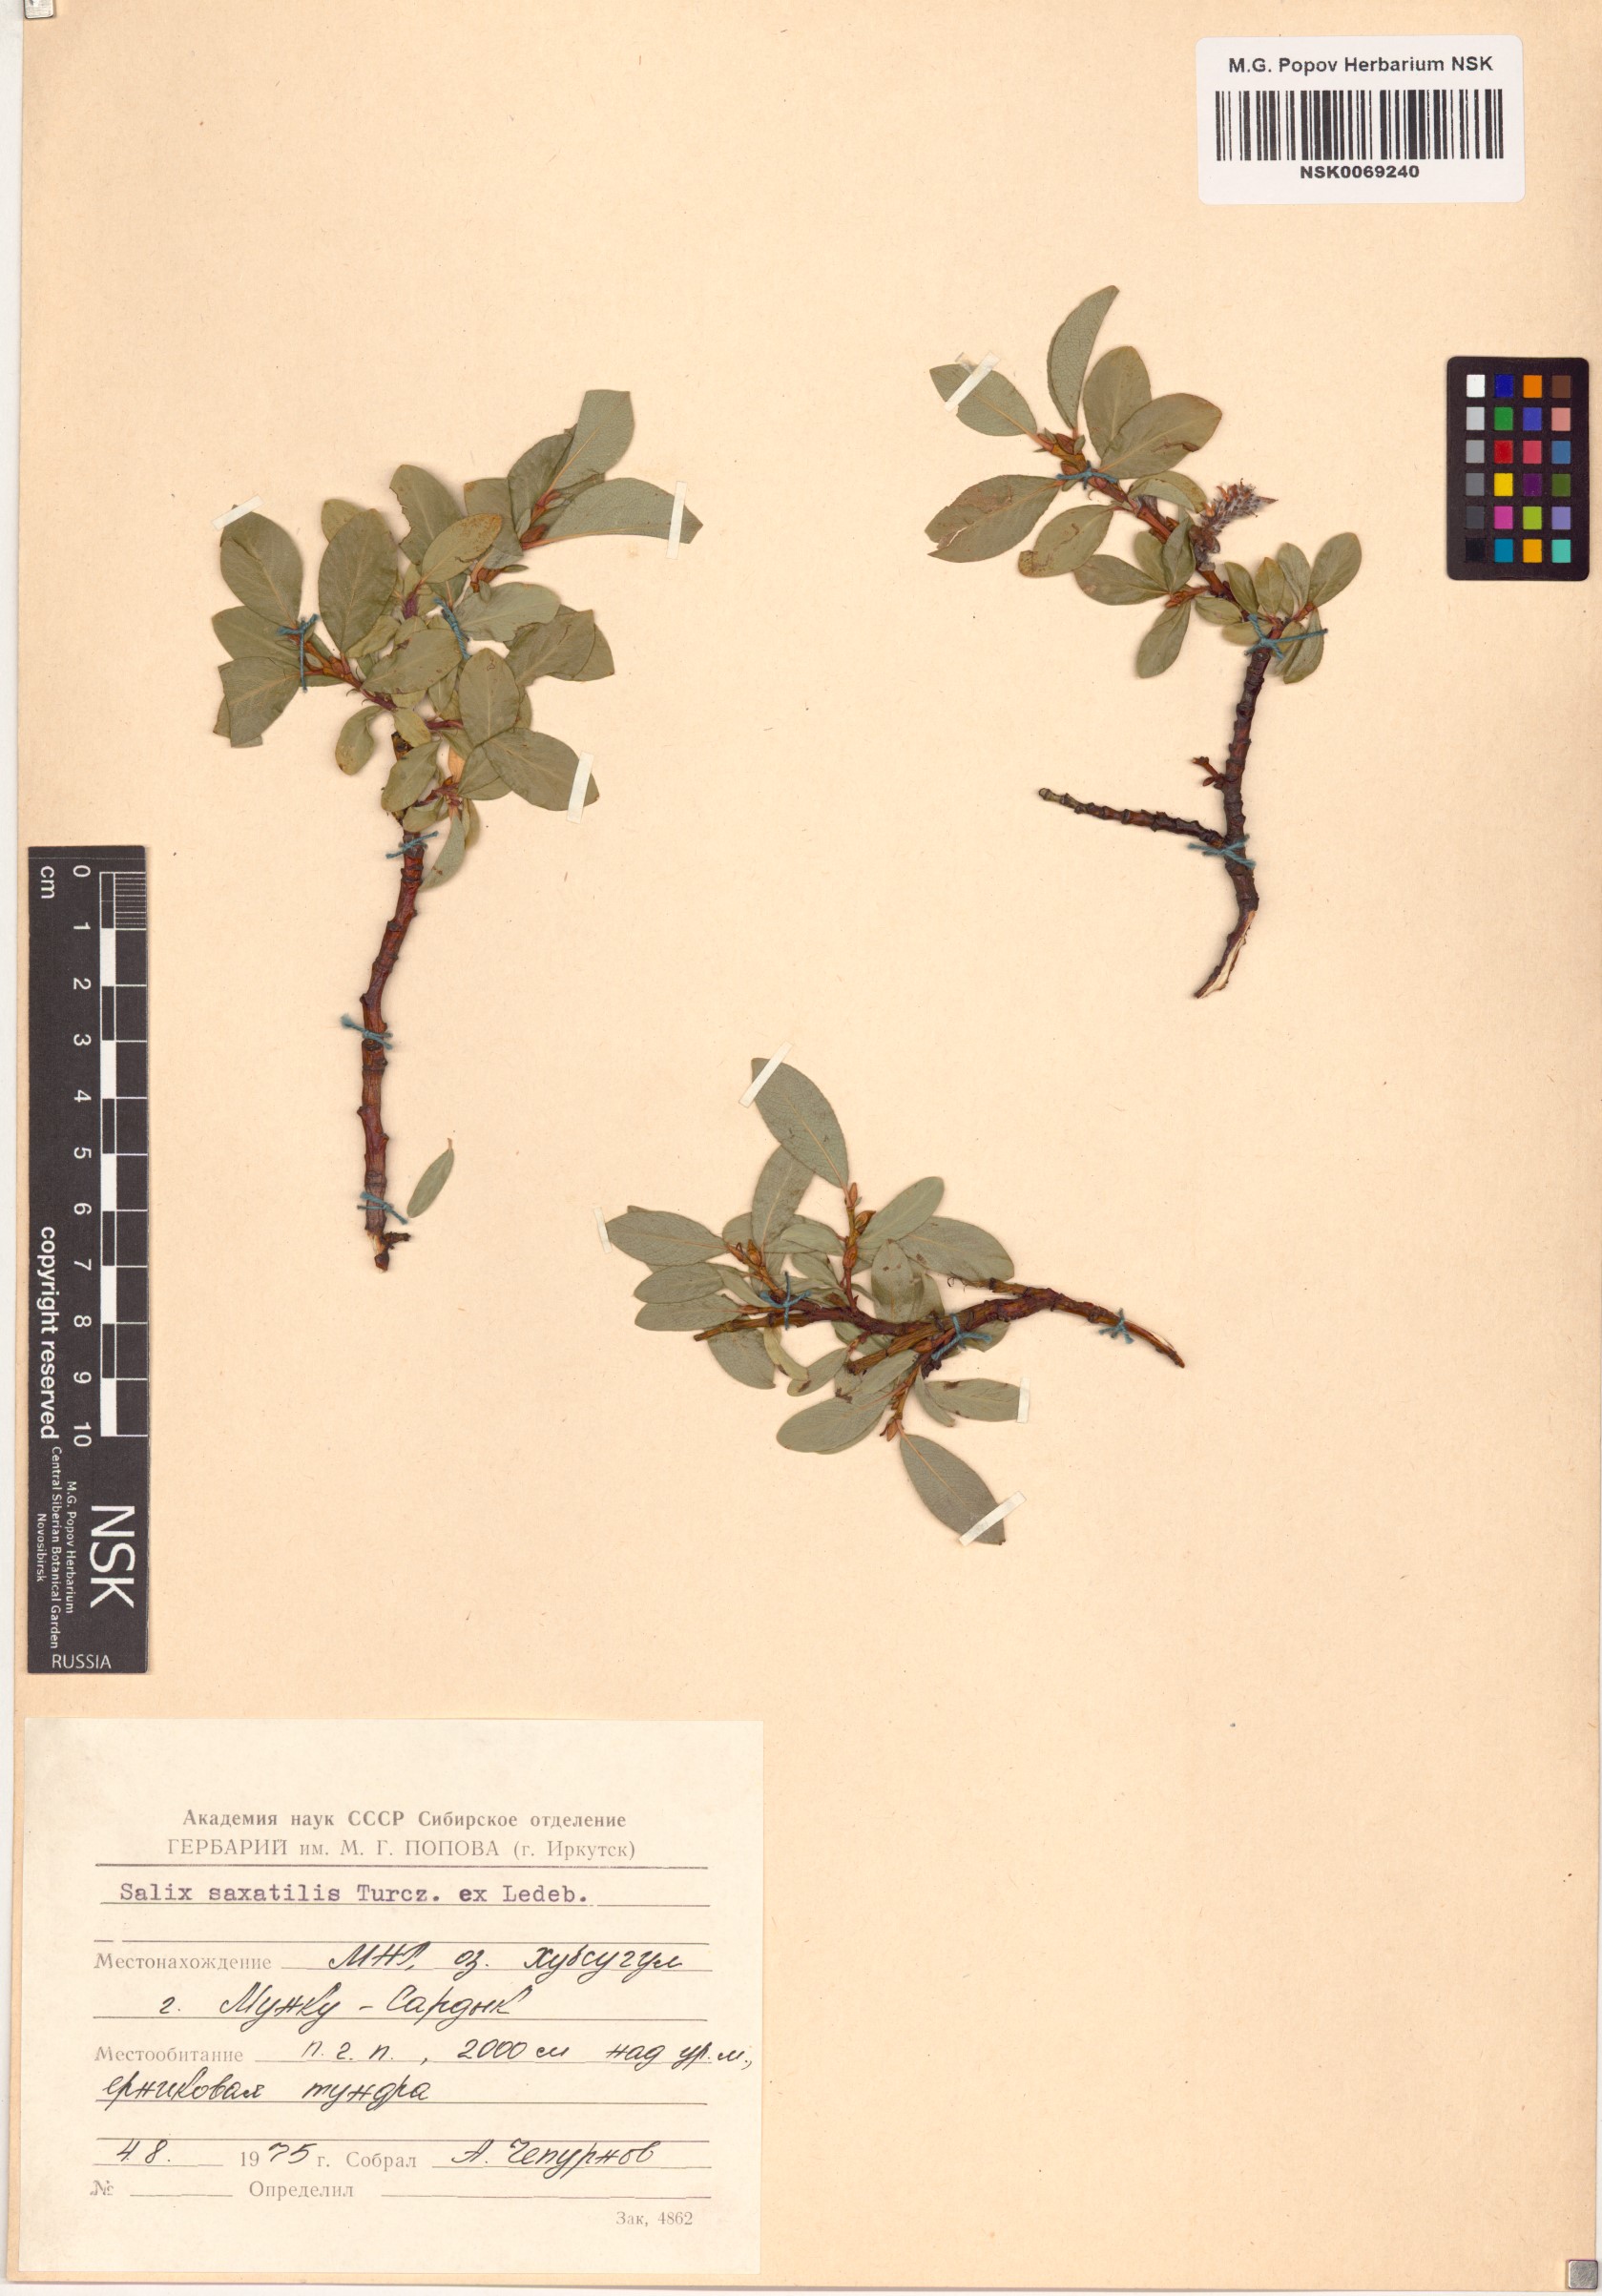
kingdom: Plantae
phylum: Tracheophyta
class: Magnoliopsida
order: Malpighiales
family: Salicaceae
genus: Salix
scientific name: Salix saxatilis
